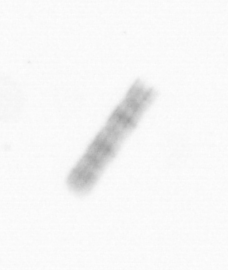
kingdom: Chromista
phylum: Ochrophyta
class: Bacillariophyceae
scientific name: Bacillariophyceae
